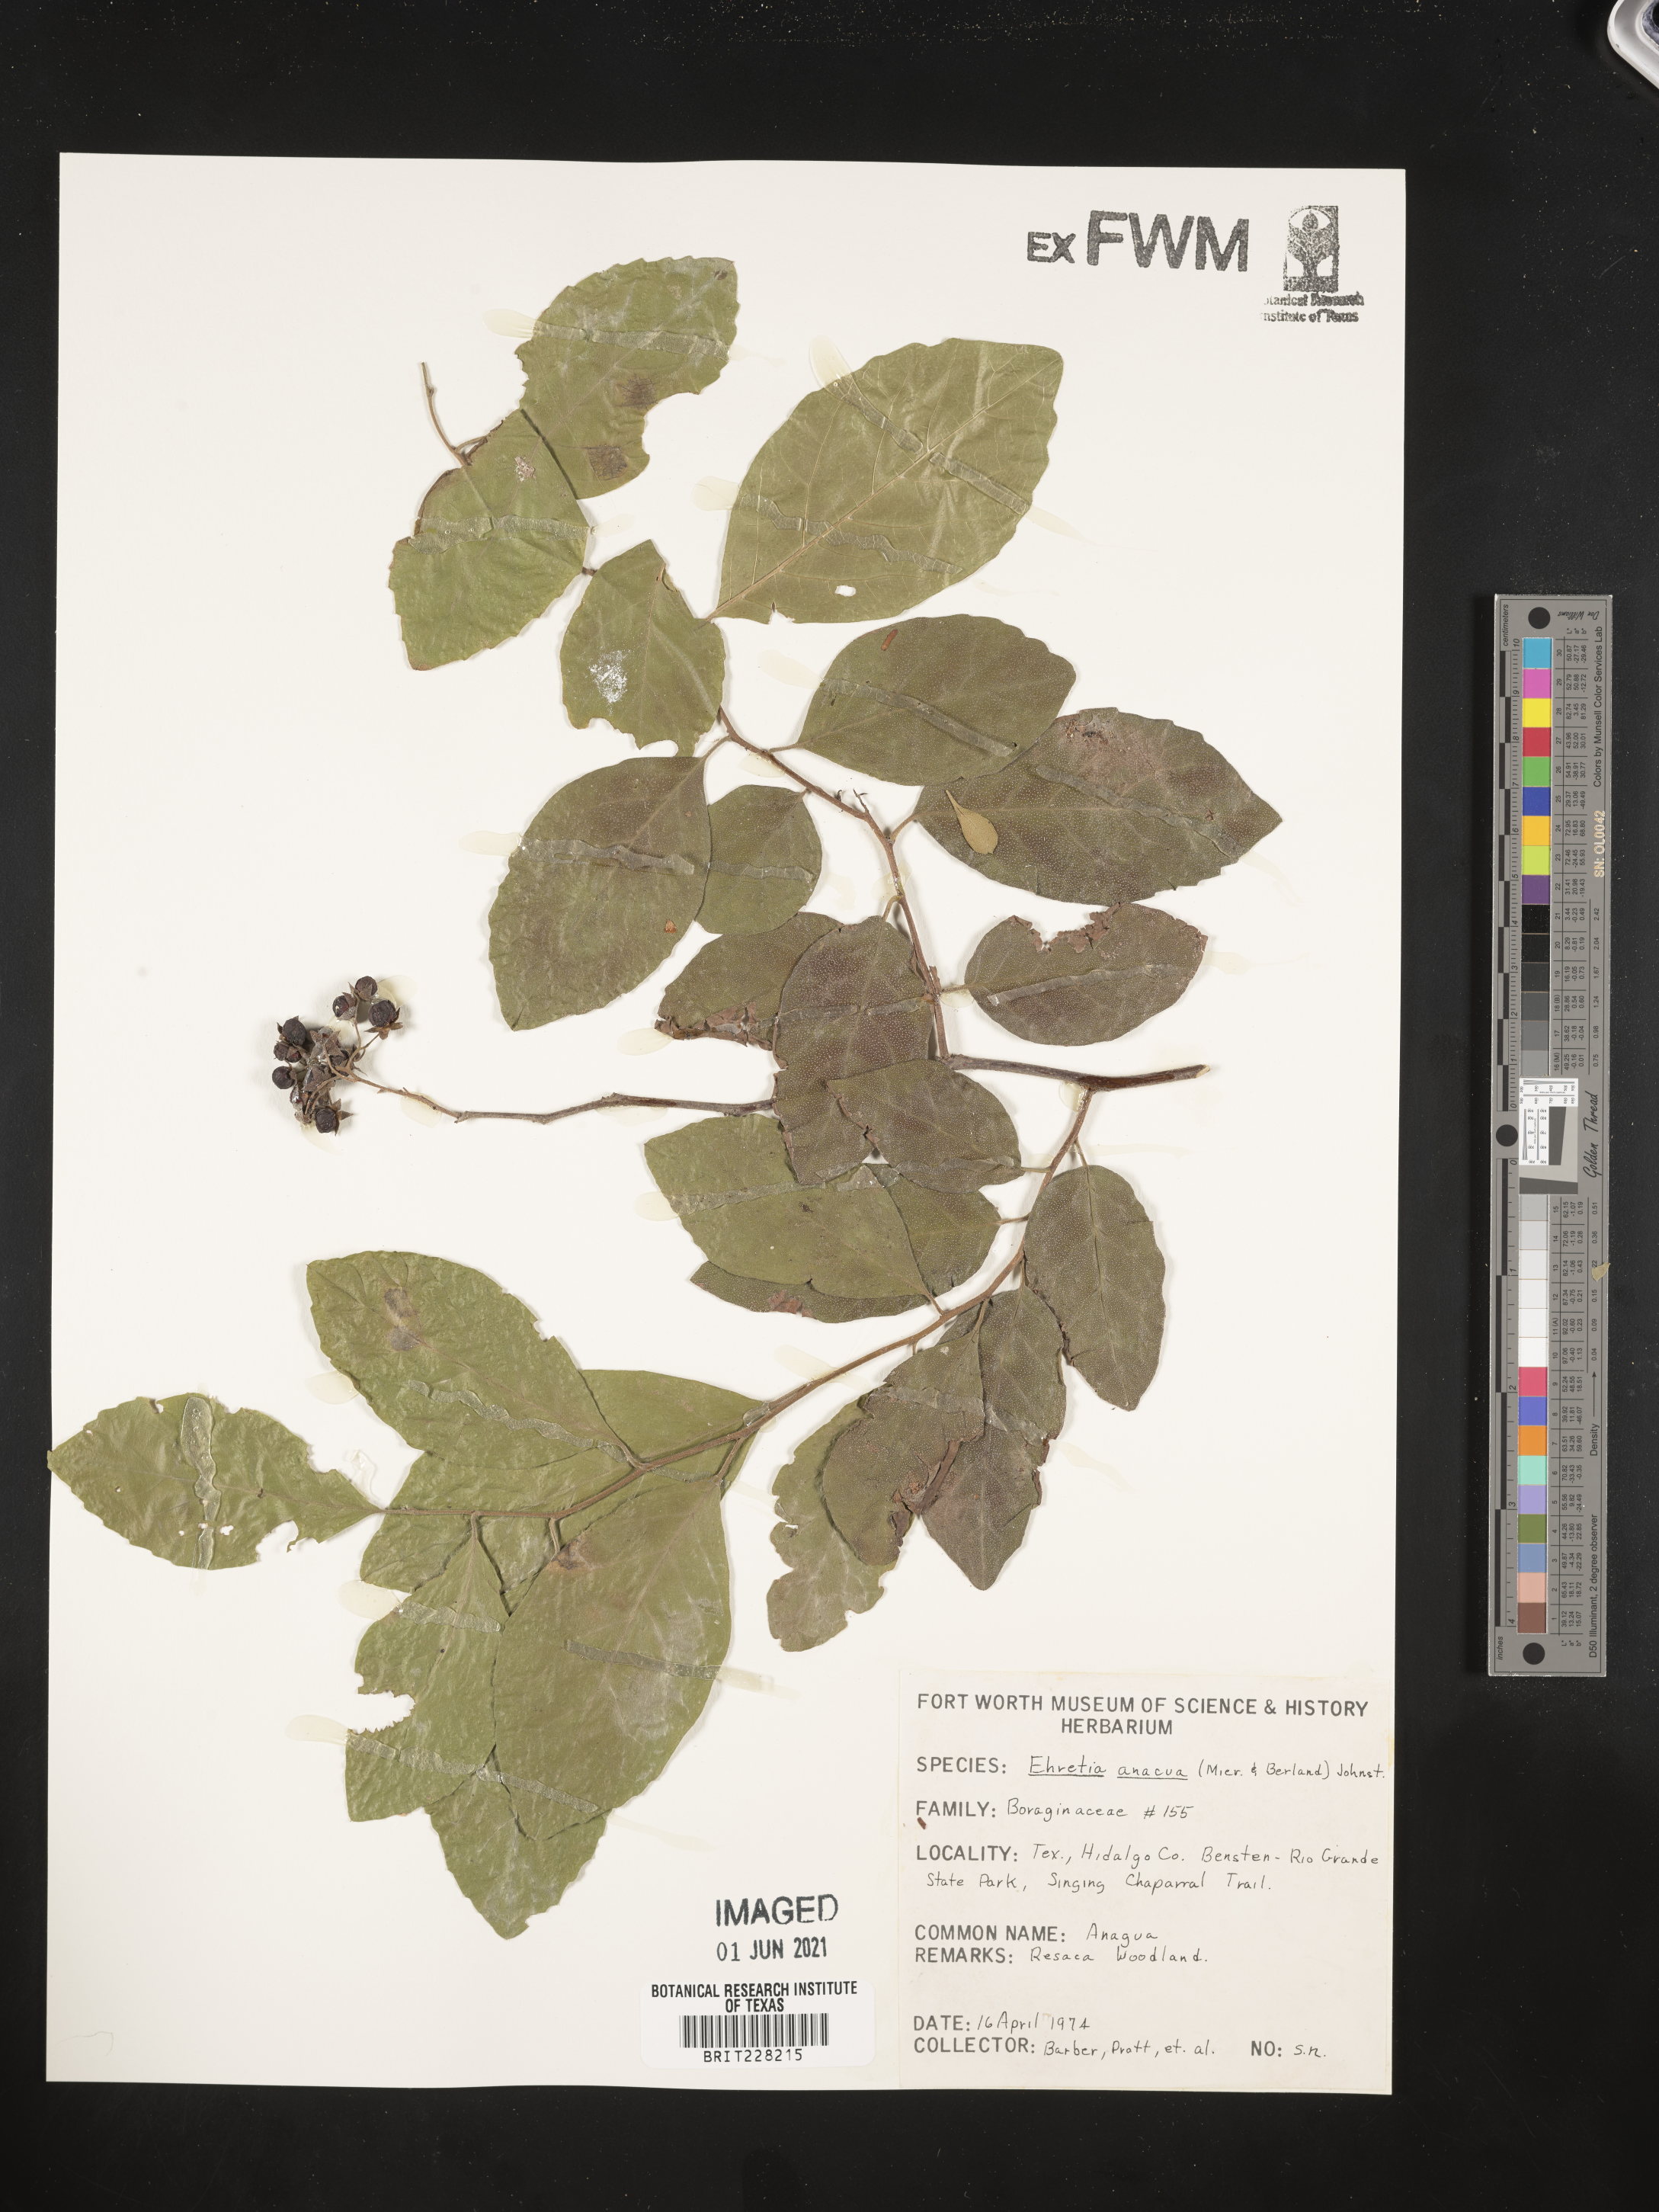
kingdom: Plantae
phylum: Tracheophyta
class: Magnoliopsida
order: Boraginales
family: Ehretiaceae
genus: Ehretia
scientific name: Ehretia anacua
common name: Sugarberry
